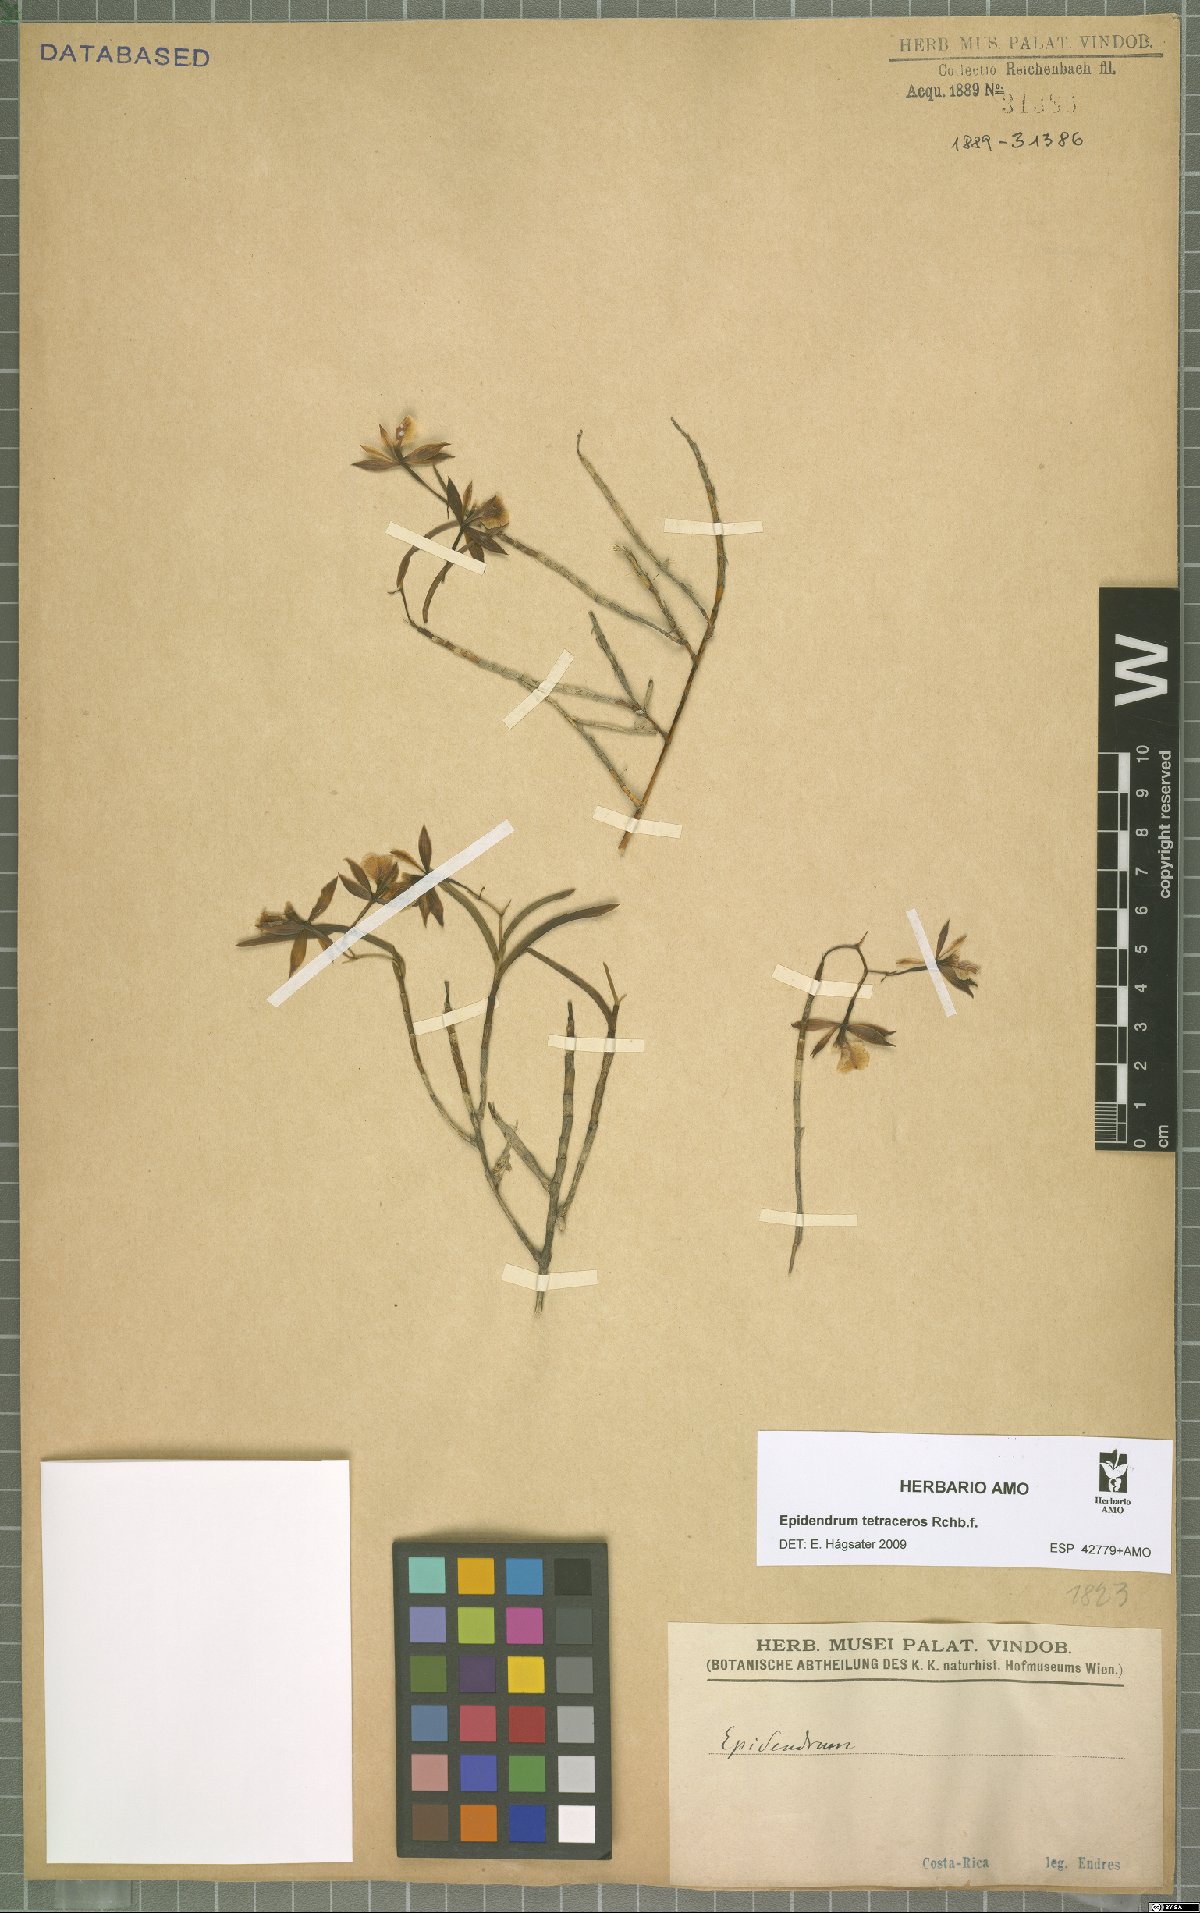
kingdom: Plantae
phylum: Tracheophyta
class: Liliopsida
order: Asparagales
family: Orchidaceae
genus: Epidendrum
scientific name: Epidendrum tetraceros
